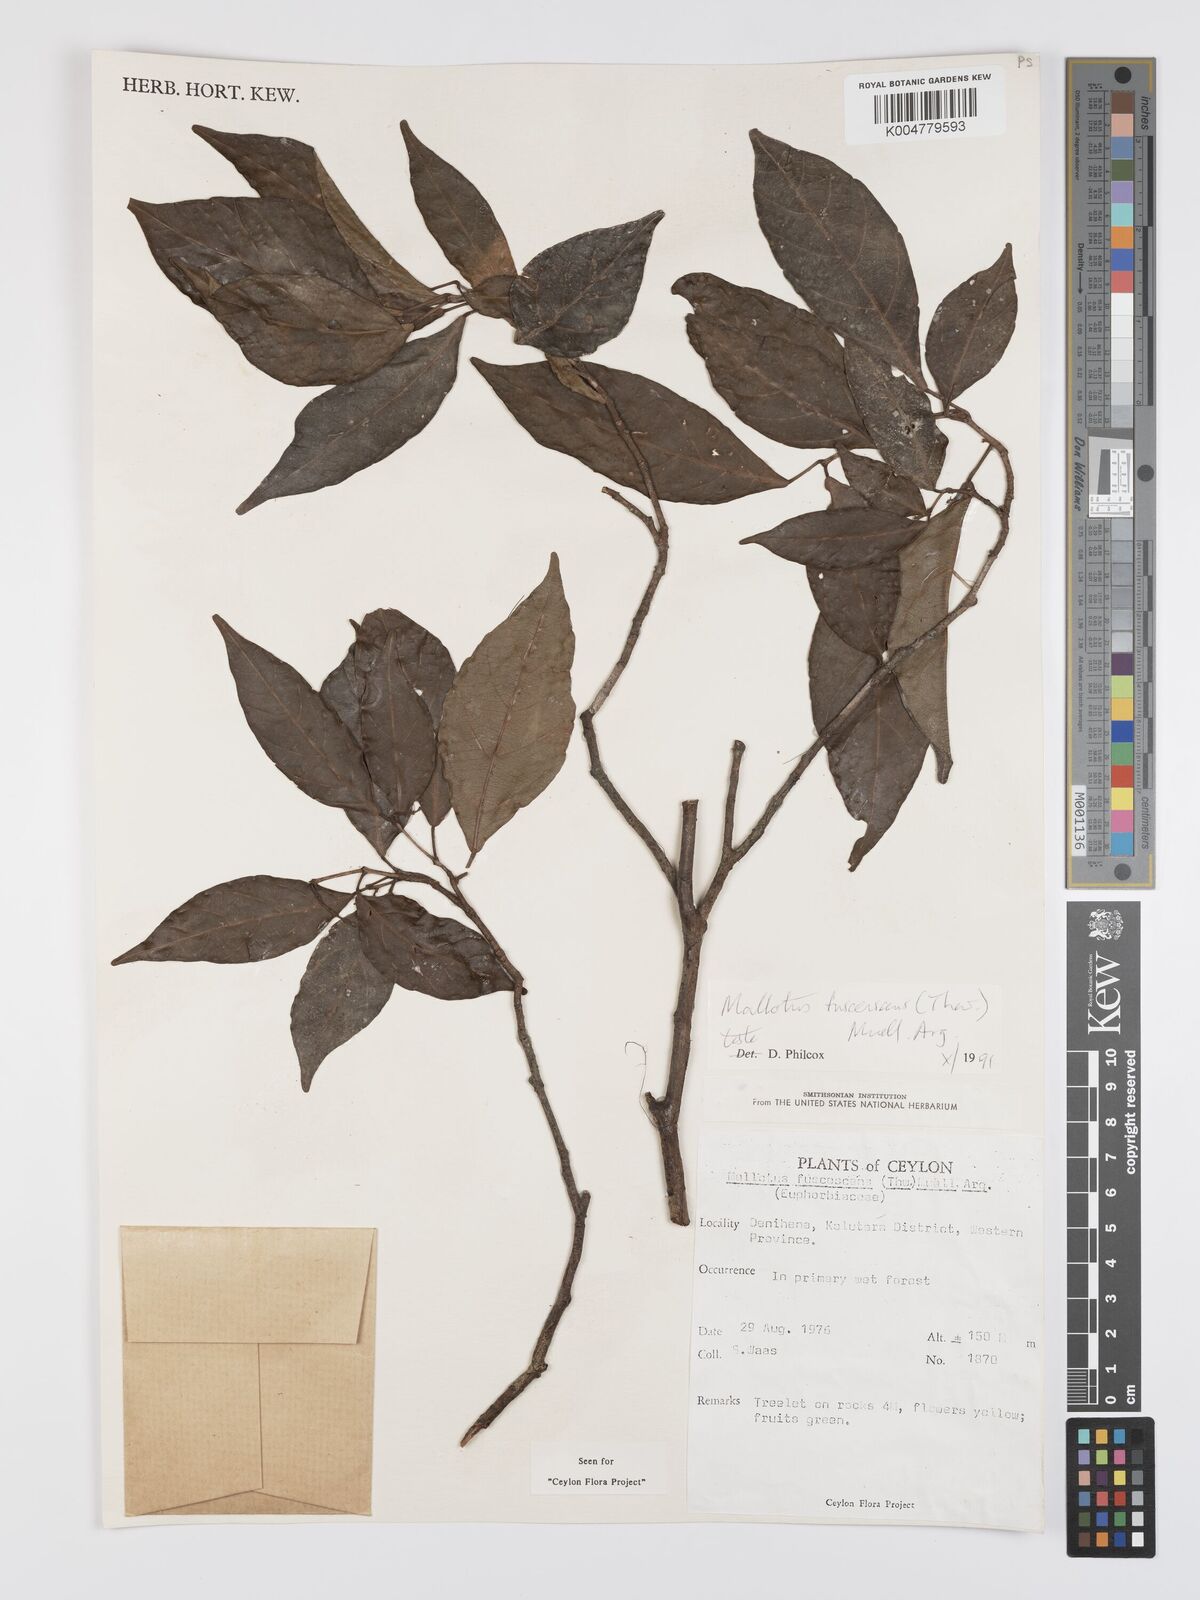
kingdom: Plantae
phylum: Tracheophyta
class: Magnoliopsida
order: Malpighiales
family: Euphorbiaceae
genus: Mallotus
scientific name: Mallotus fuscescens
